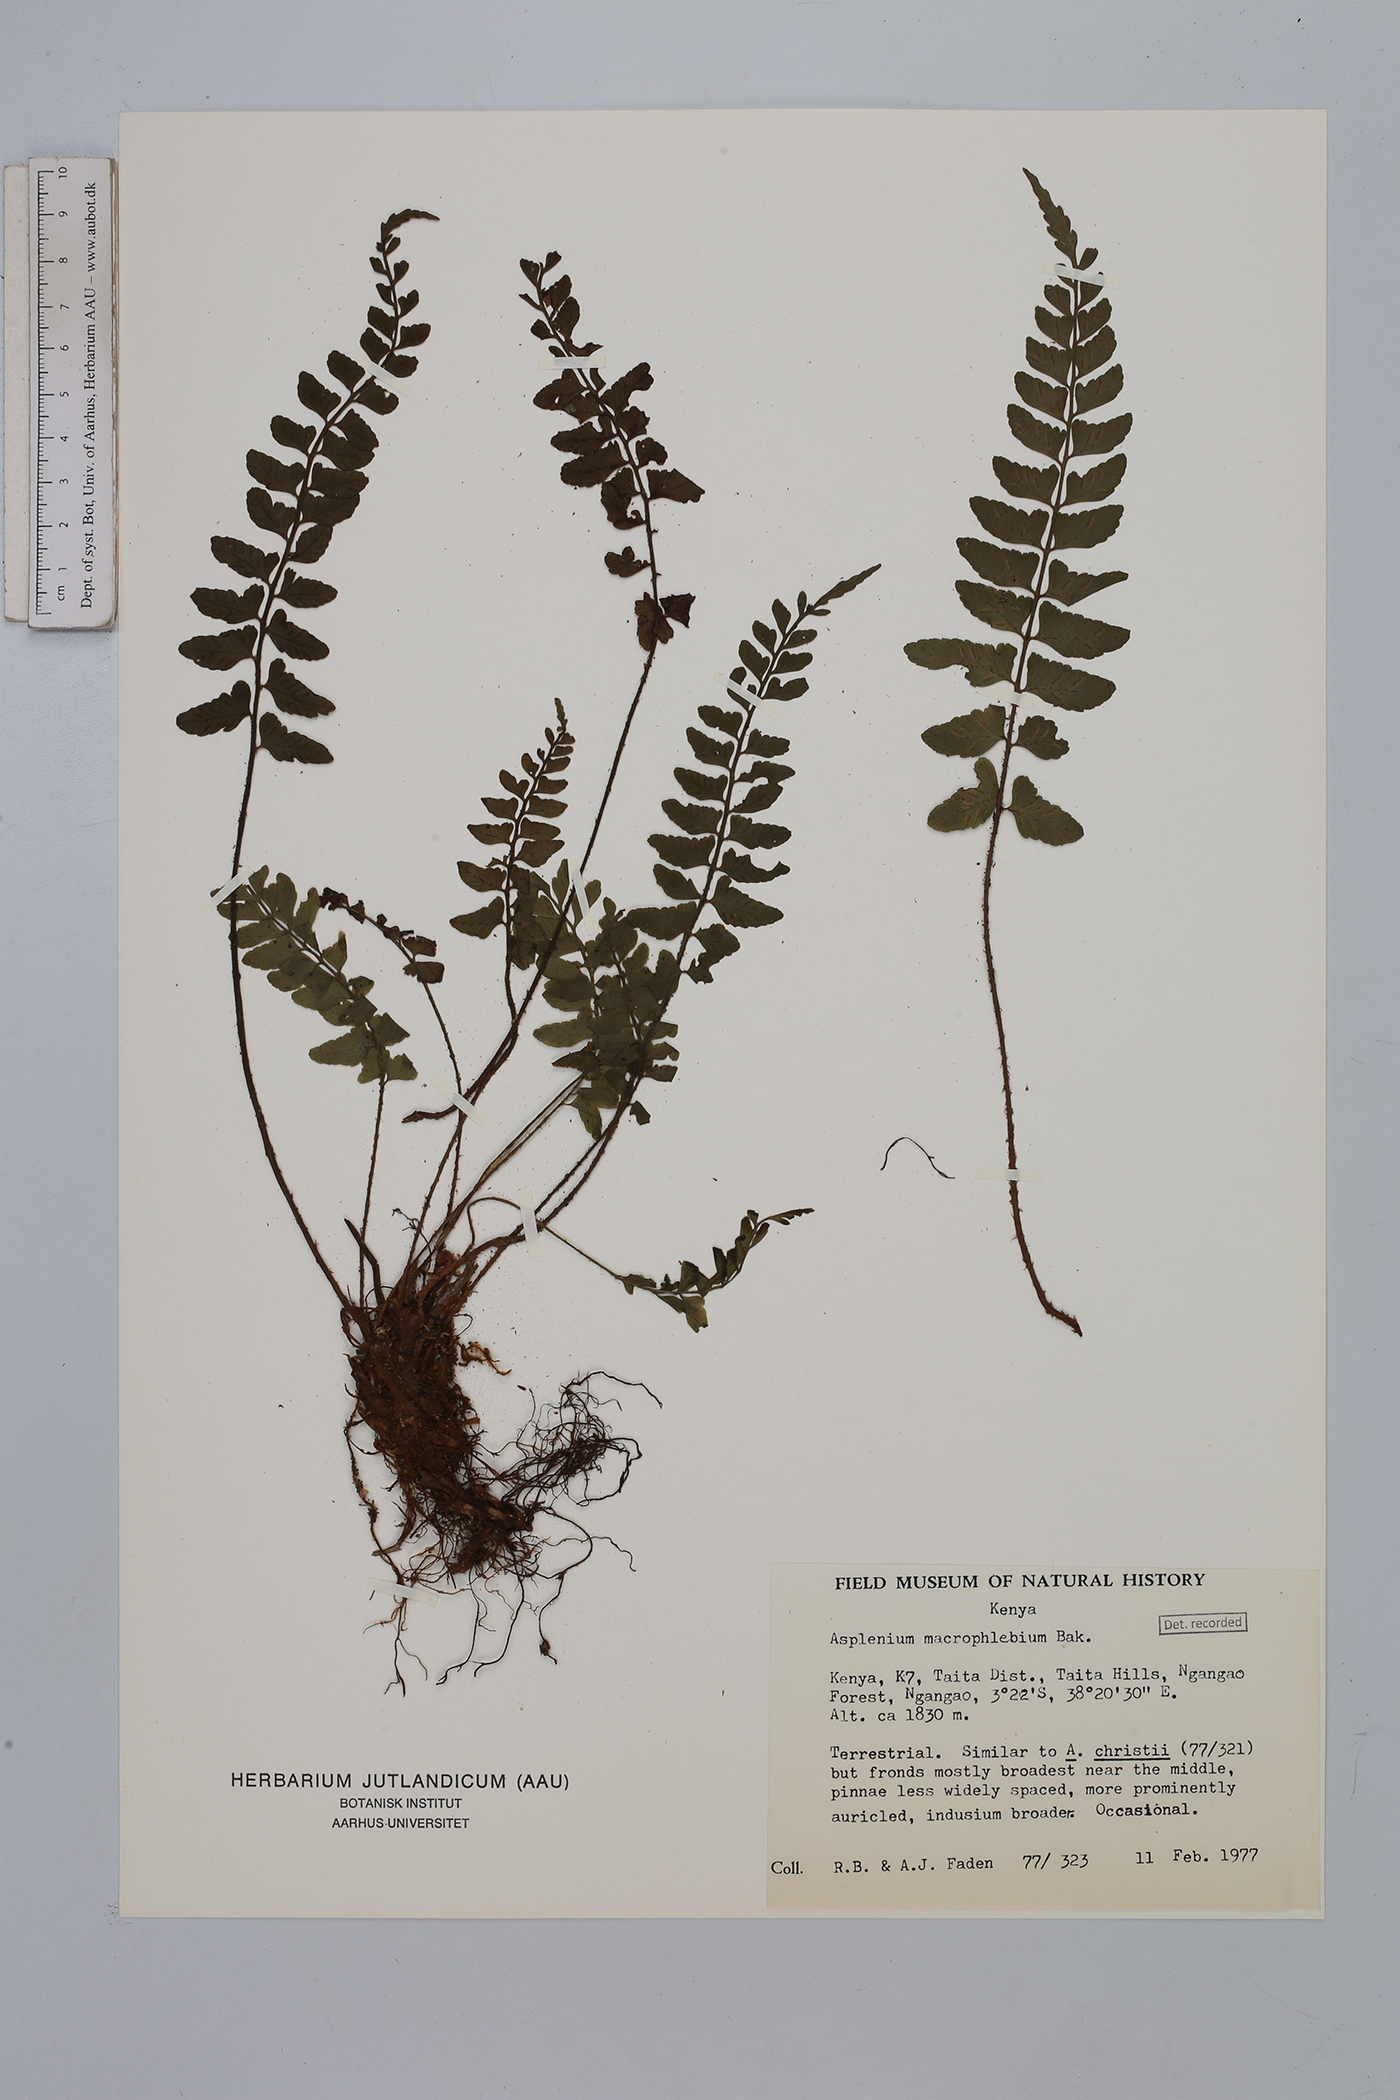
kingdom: Plantae
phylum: Tracheophyta
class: Polypodiopsida
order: Polypodiales
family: Aspleniaceae
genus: Asplenium
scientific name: Asplenium macrophlebium
